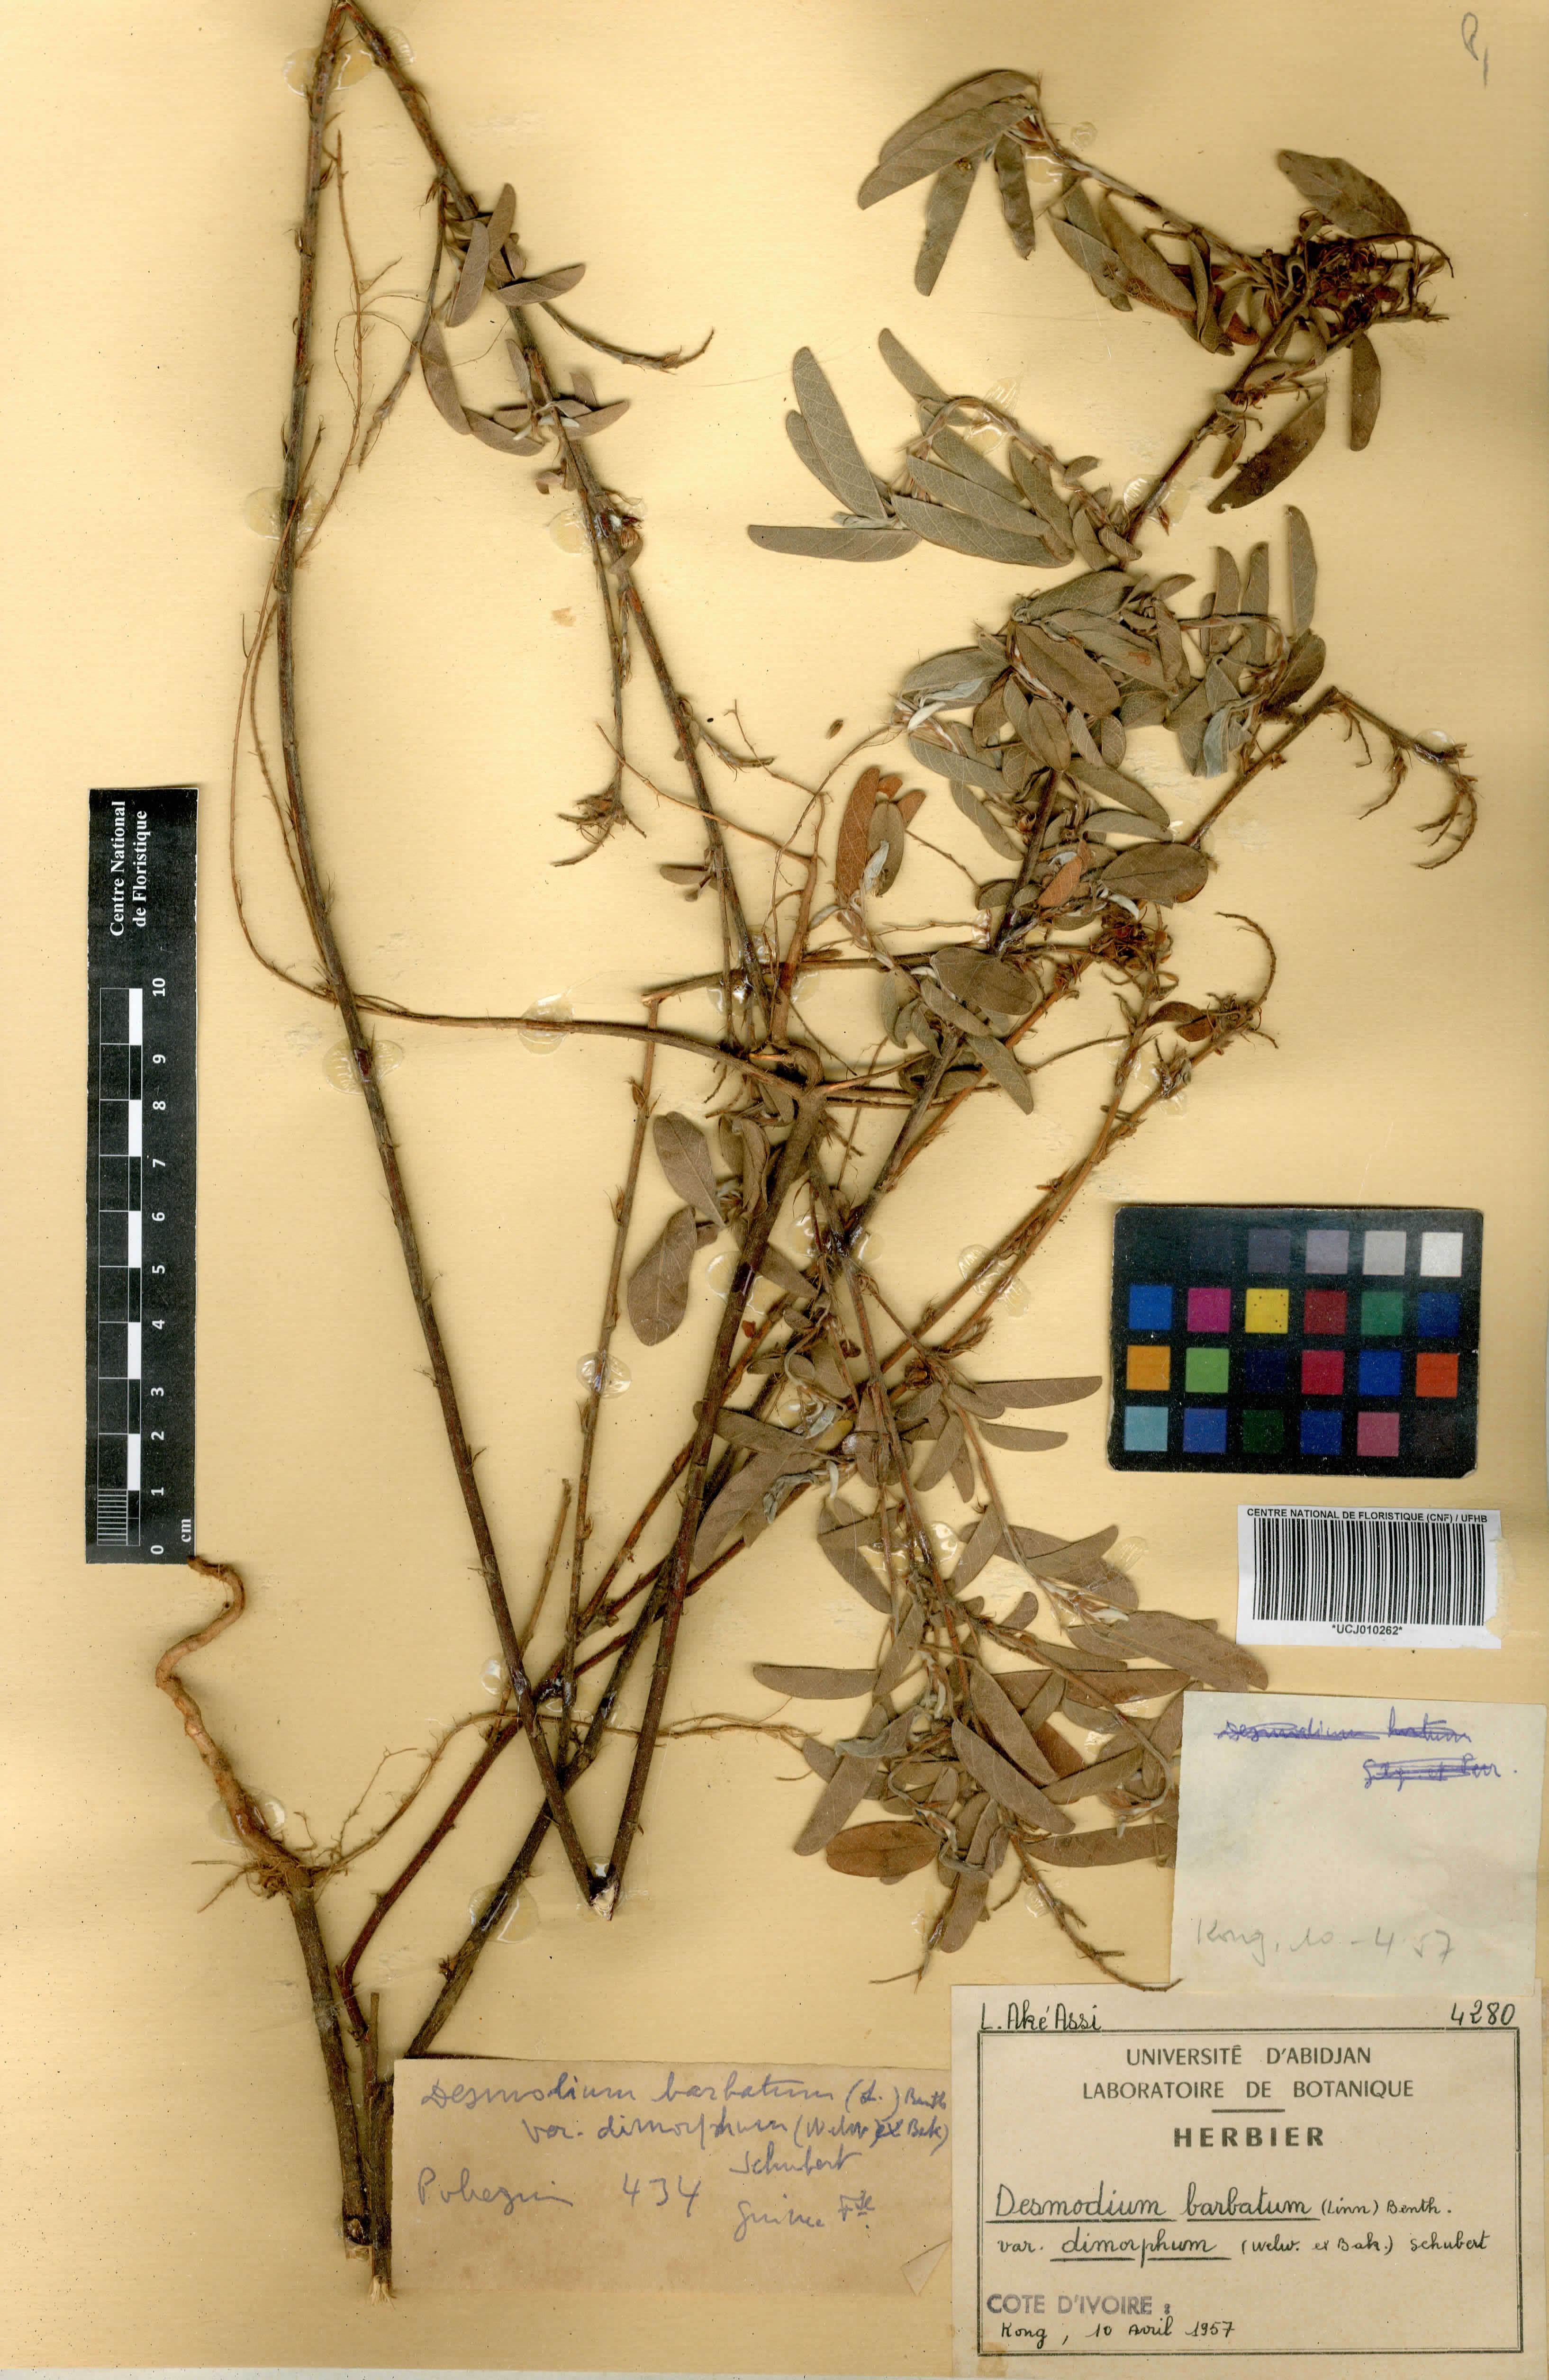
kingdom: Plantae
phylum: Tracheophyta
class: Magnoliopsida
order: Fabales
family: Fabaceae
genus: Grona
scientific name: Grona barbata
